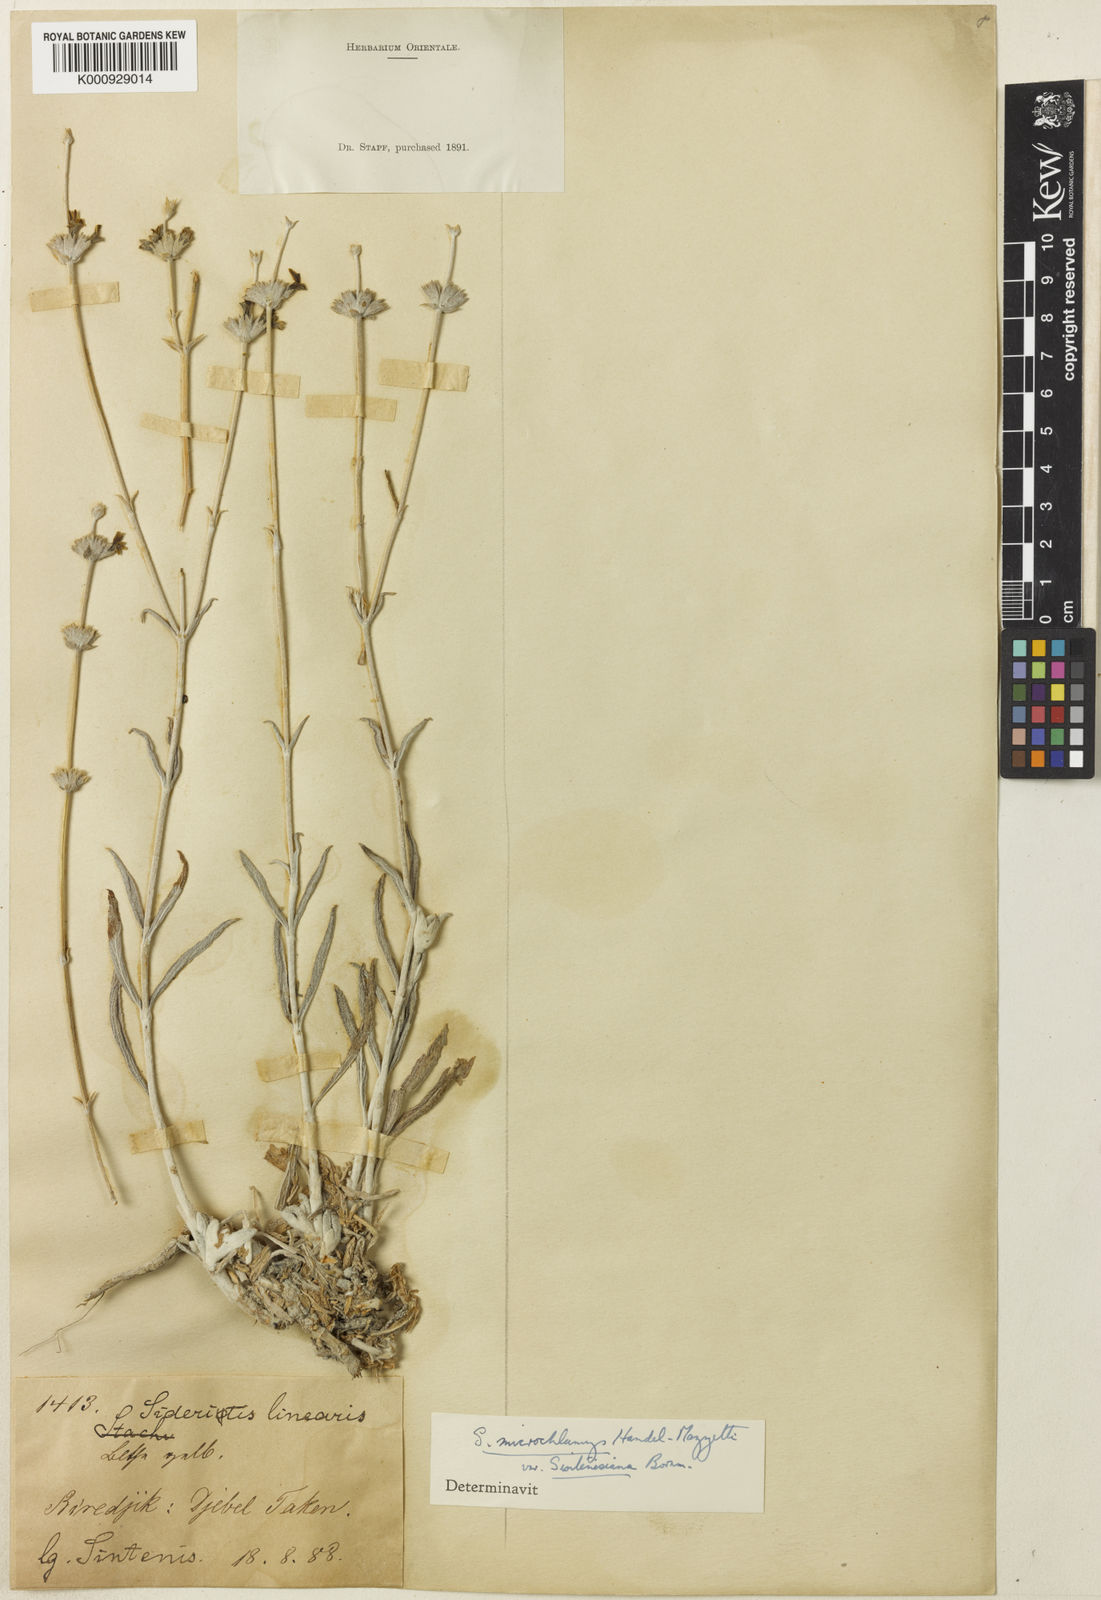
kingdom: Plantae
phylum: Tracheophyta
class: Magnoliopsida
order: Lamiales
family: Lamiaceae
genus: Sideritis
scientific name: Sideritis
